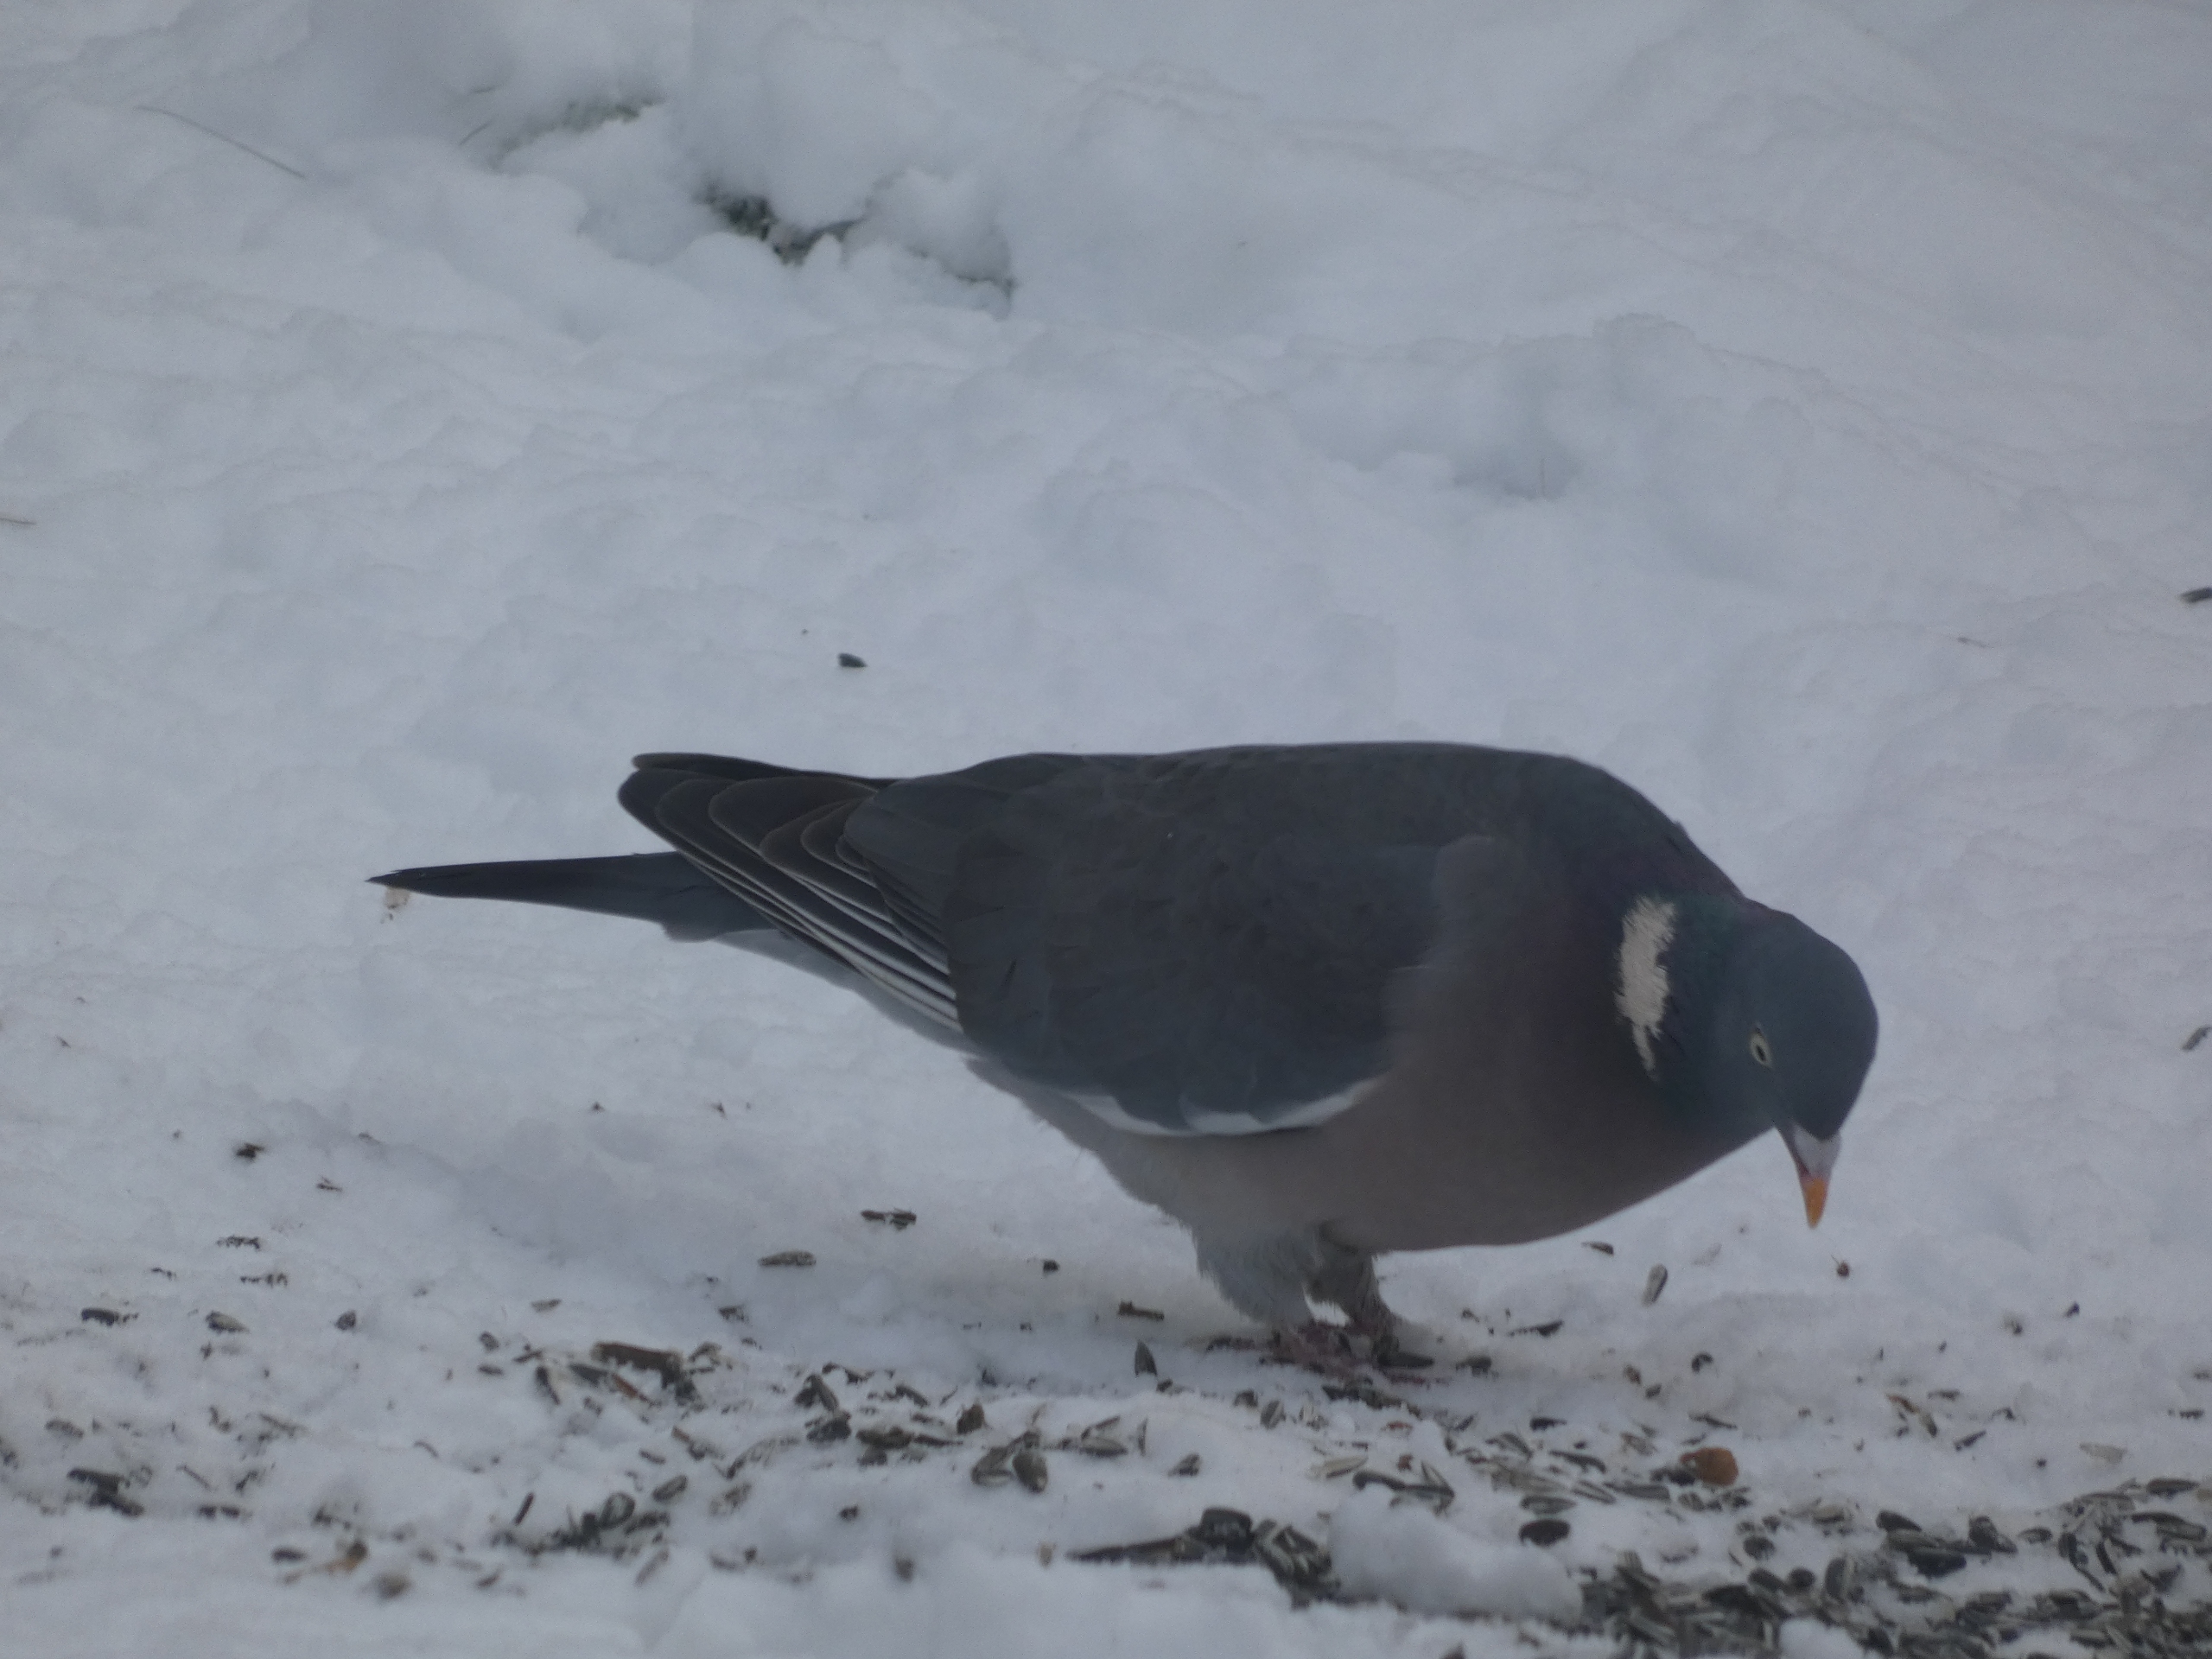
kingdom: Animalia
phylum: Chordata
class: Aves
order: Columbiformes
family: Columbidae
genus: Columba
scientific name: Columba palumbus
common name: Ringdue
